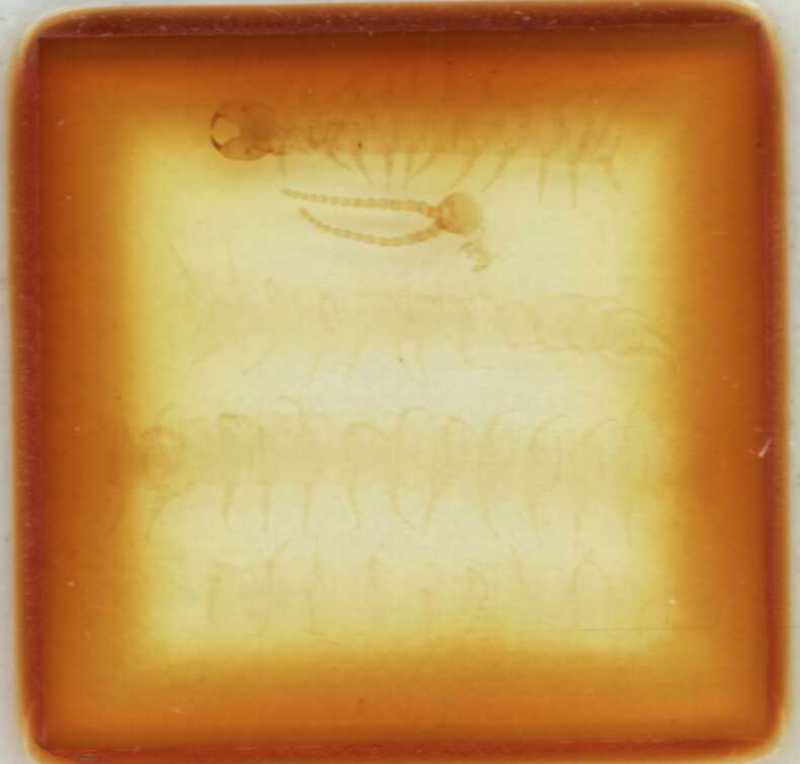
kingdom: Animalia
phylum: Arthropoda
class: Chilopoda
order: Geophilomorpha
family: Schendylidae
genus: Schendyla
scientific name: Schendyla vizzavonae
